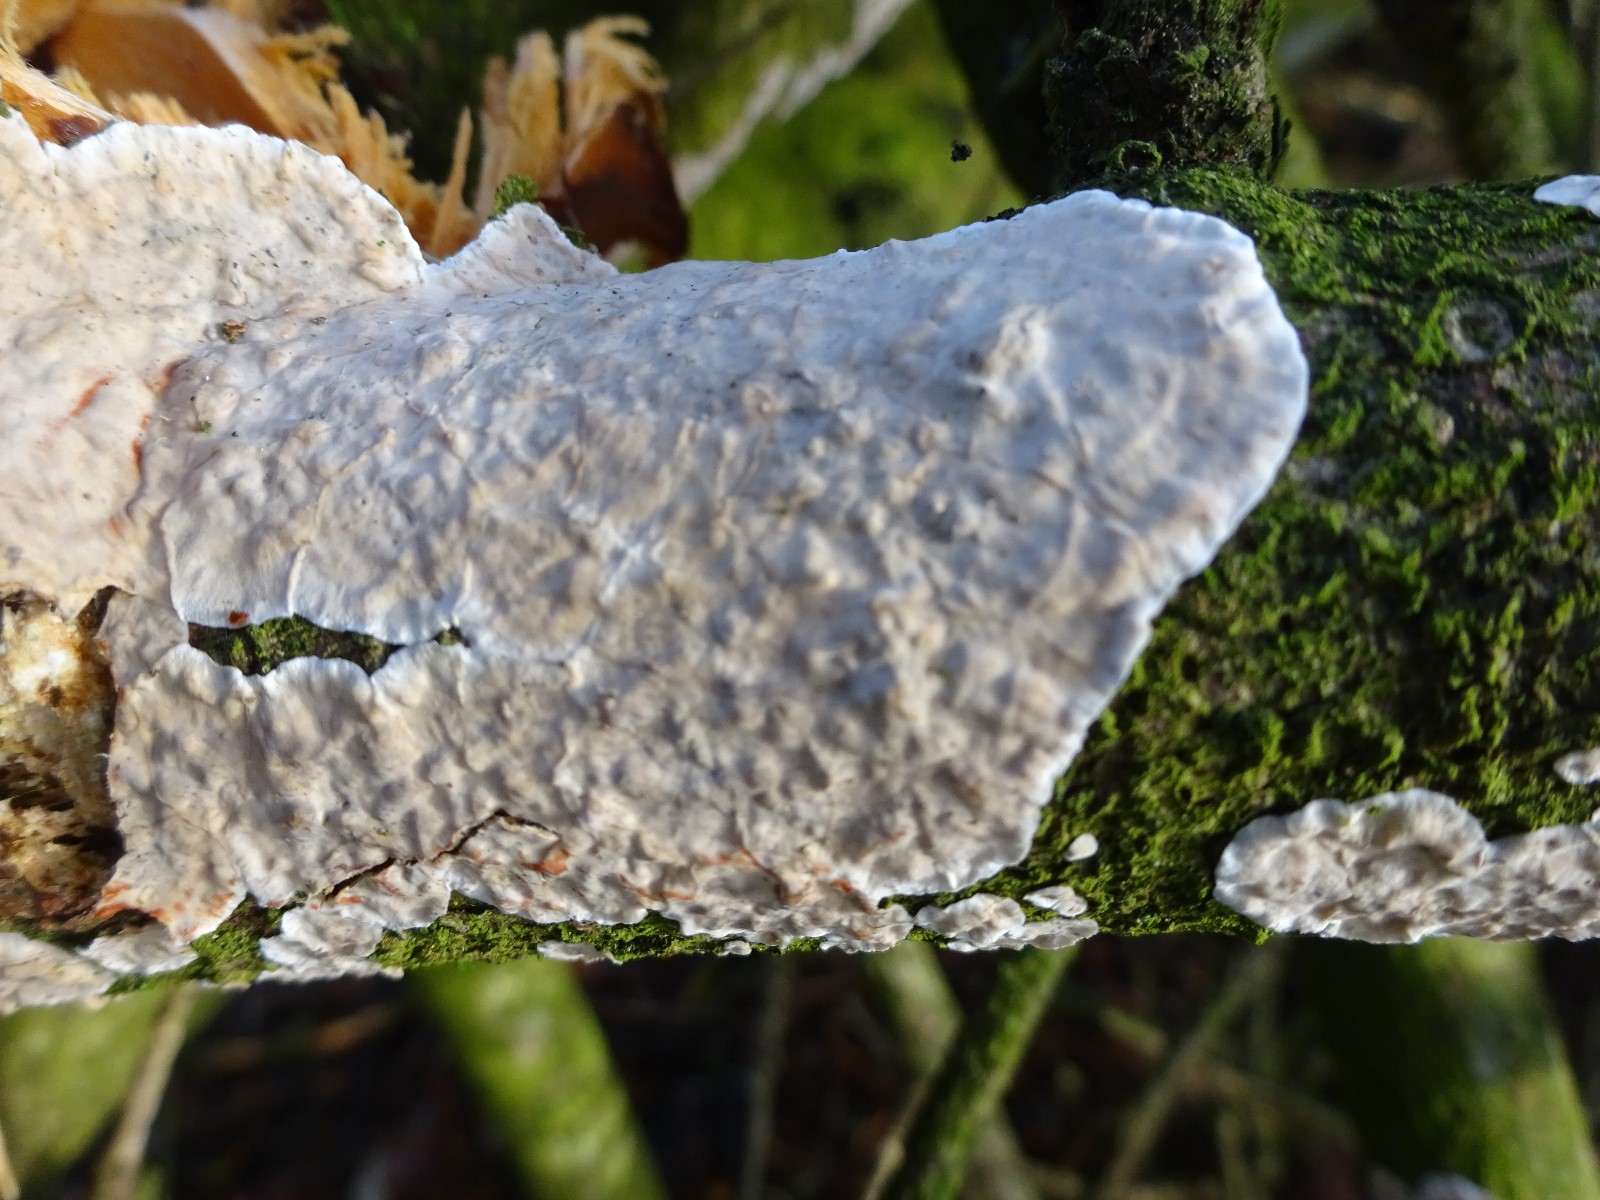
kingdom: Fungi
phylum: Basidiomycota
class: Agaricomycetes
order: Russulales
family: Stereaceae
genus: Stereum
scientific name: Stereum sanguinolentum
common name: blødende lædersvamp
